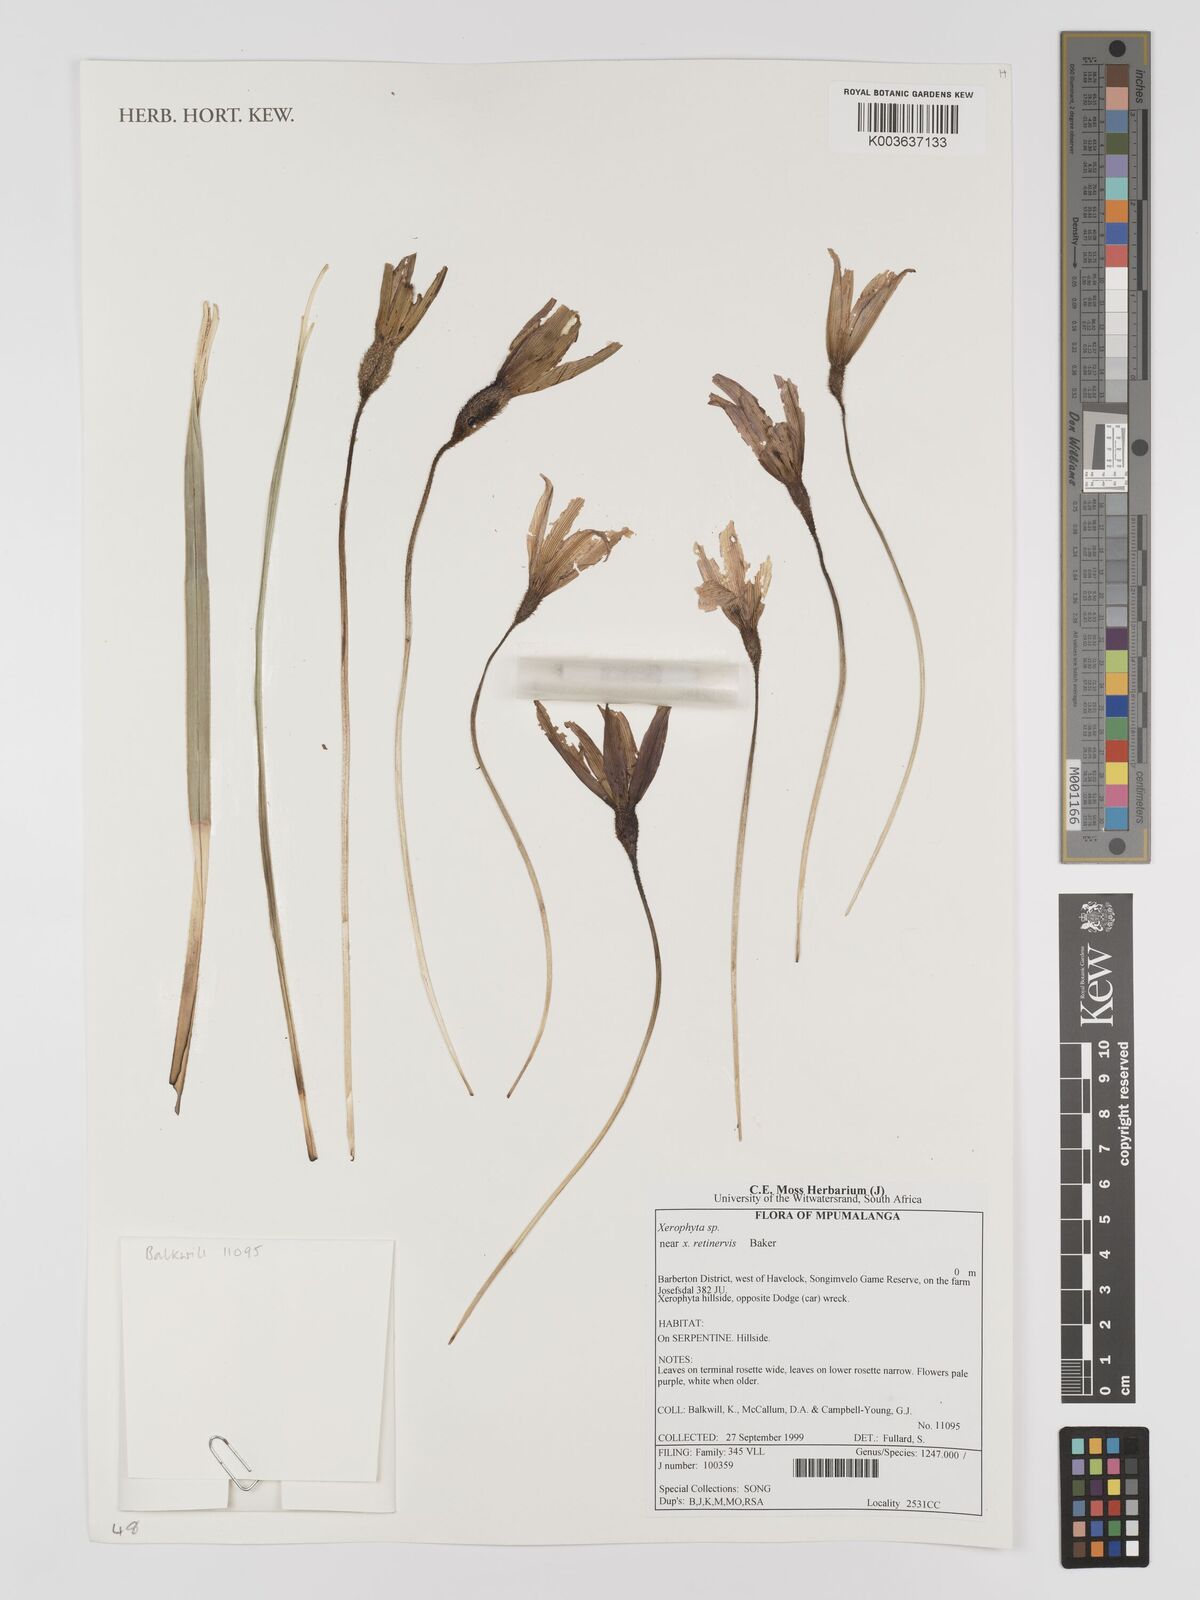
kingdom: Plantae
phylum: Tracheophyta
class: Liliopsida
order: Pandanales
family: Velloziaceae
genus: Xerophyta
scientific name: Xerophyta
